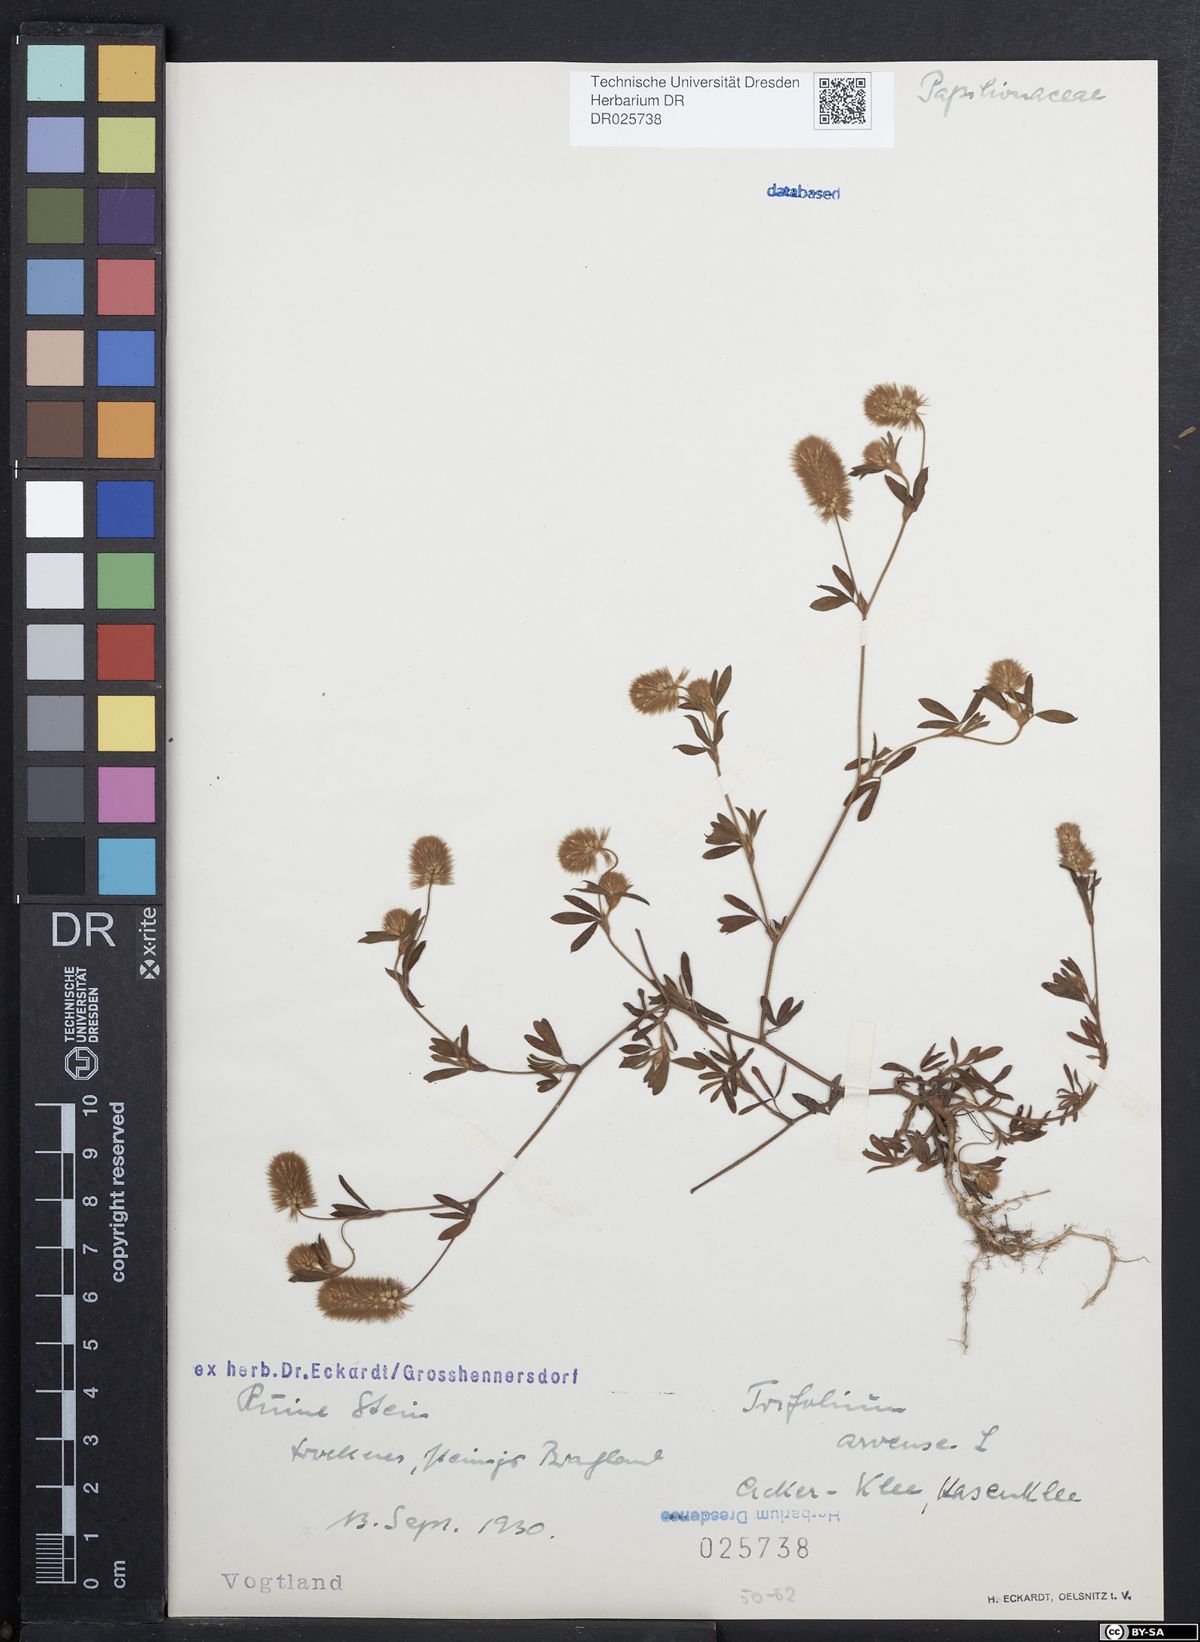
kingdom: Plantae
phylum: Tracheophyta
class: Magnoliopsida
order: Fabales
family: Fabaceae
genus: Trifolium
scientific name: Trifolium arvense
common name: Hare's-foot clover
